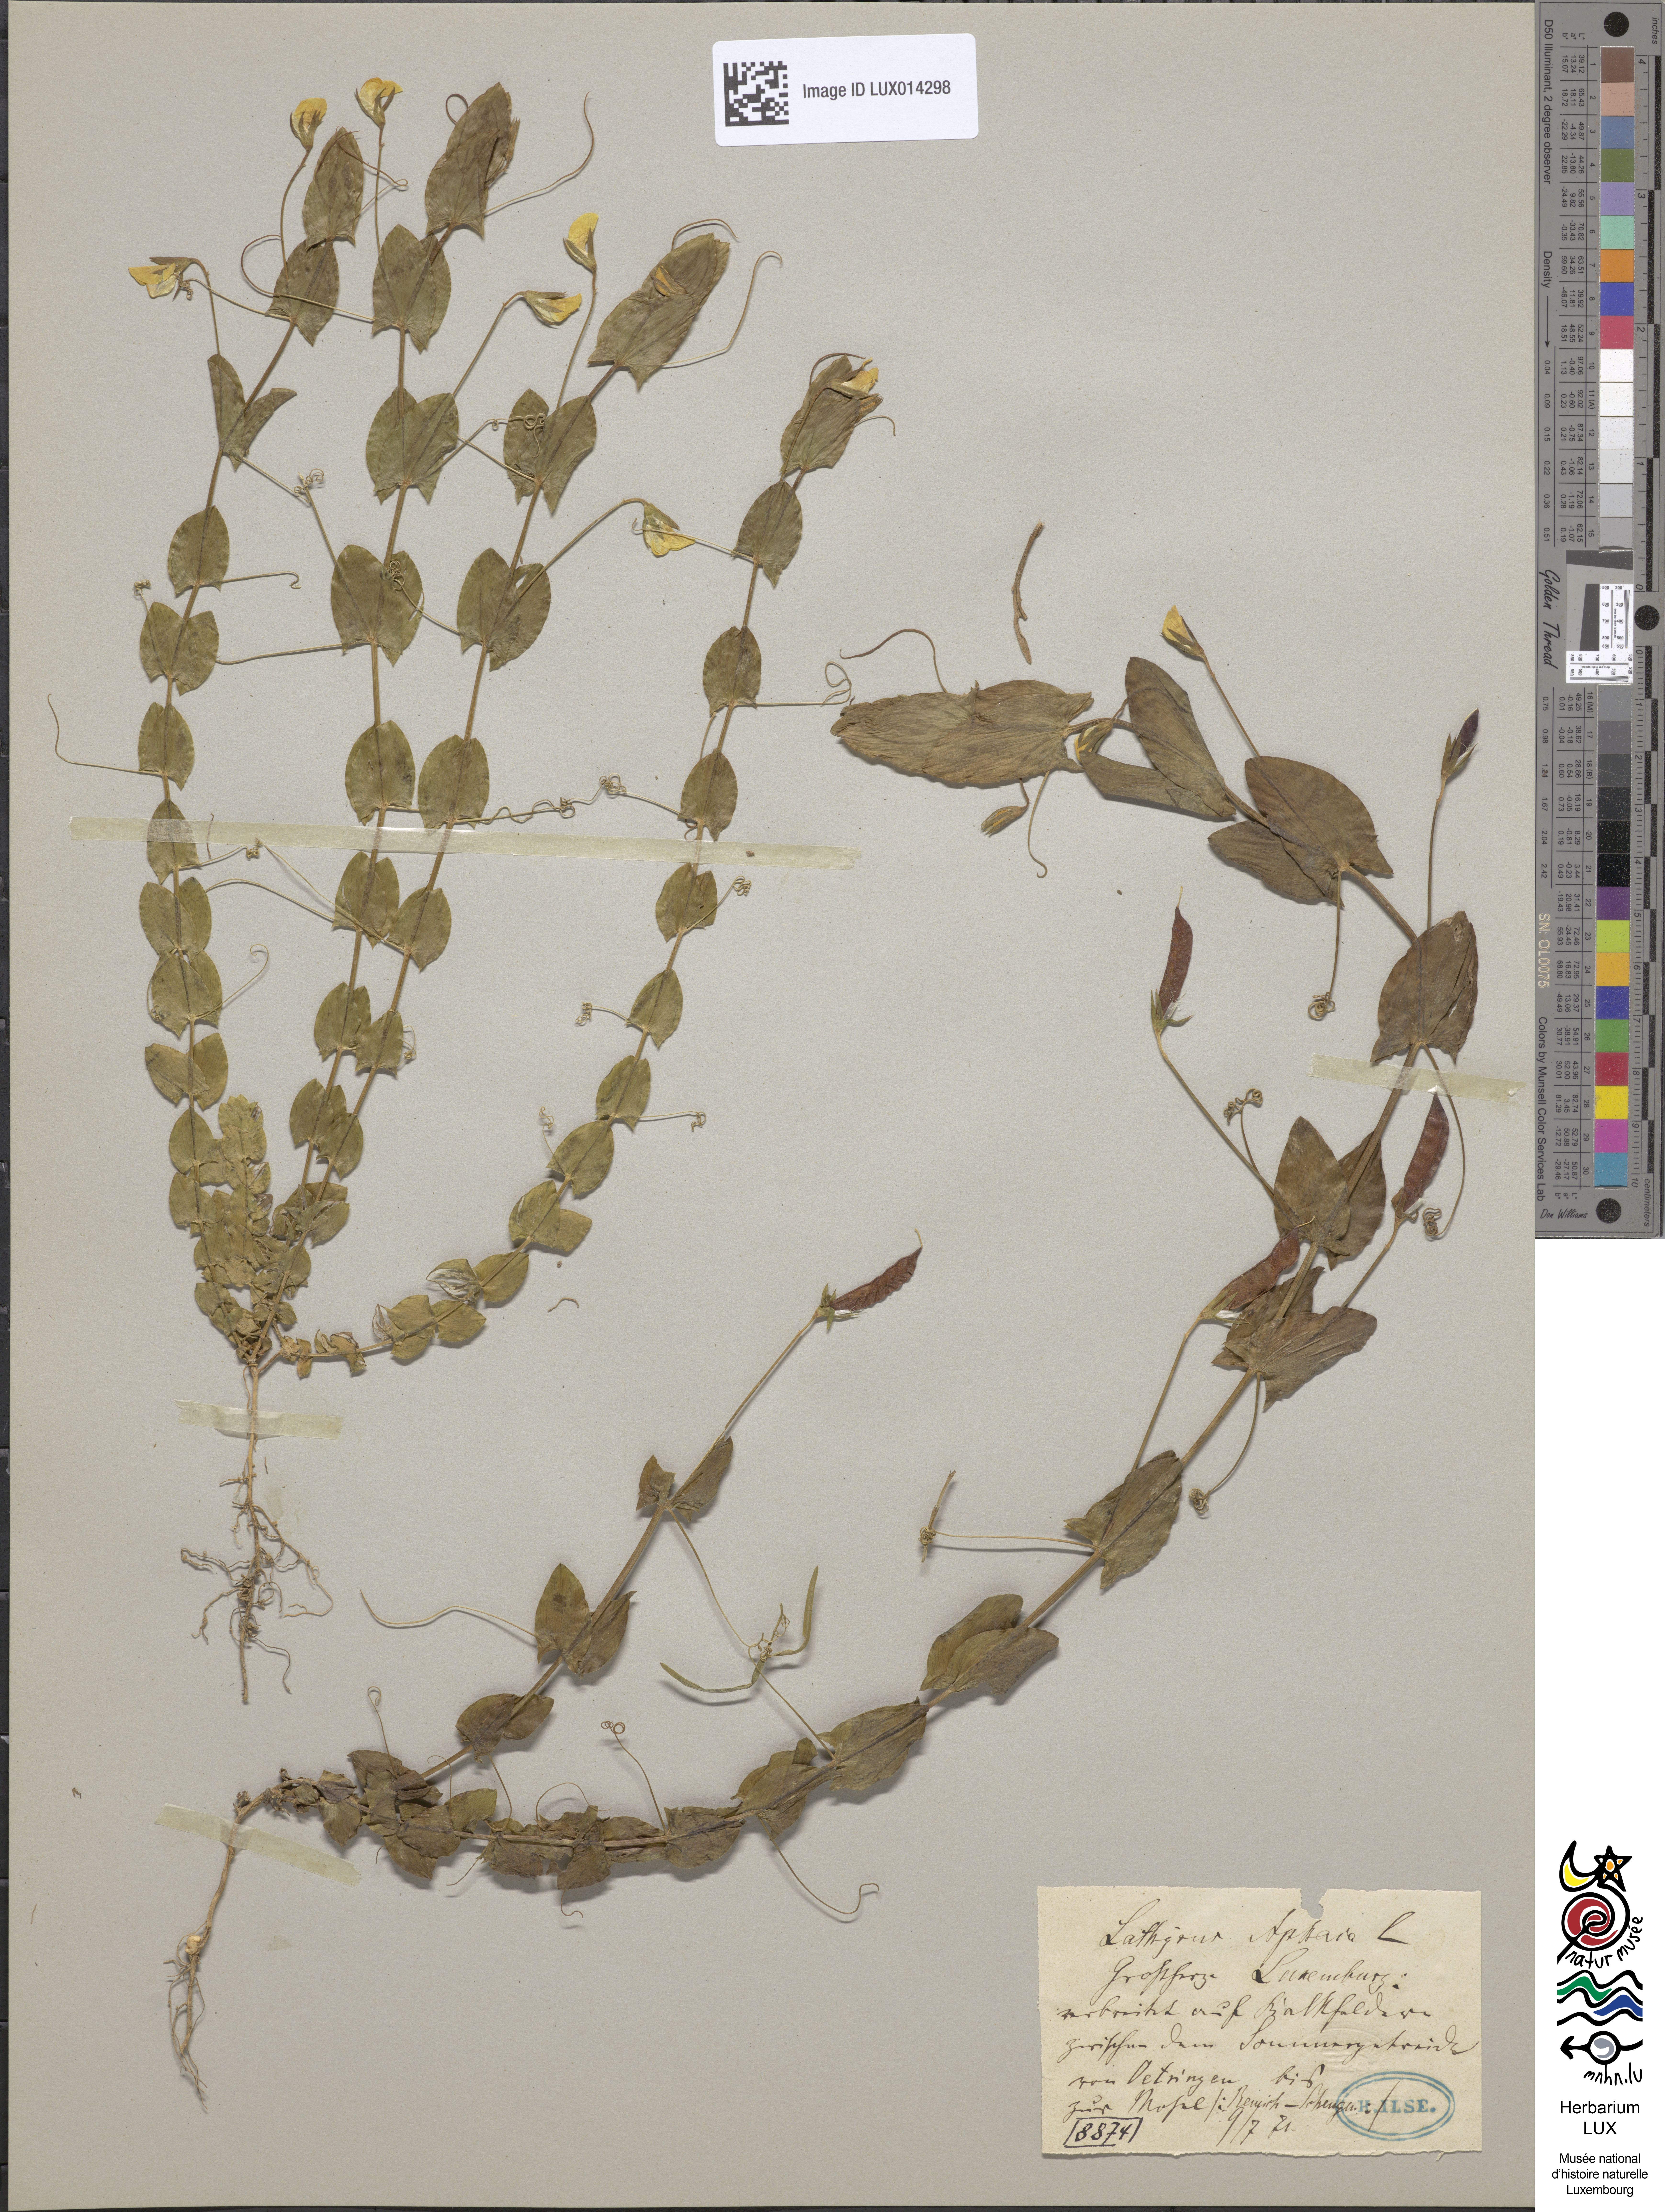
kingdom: Plantae
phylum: Tracheophyta
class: Magnoliopsida
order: Fabales
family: Fabaceae
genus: Lathyrus
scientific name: Lathyrus aphaca
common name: Yellow vetchling
